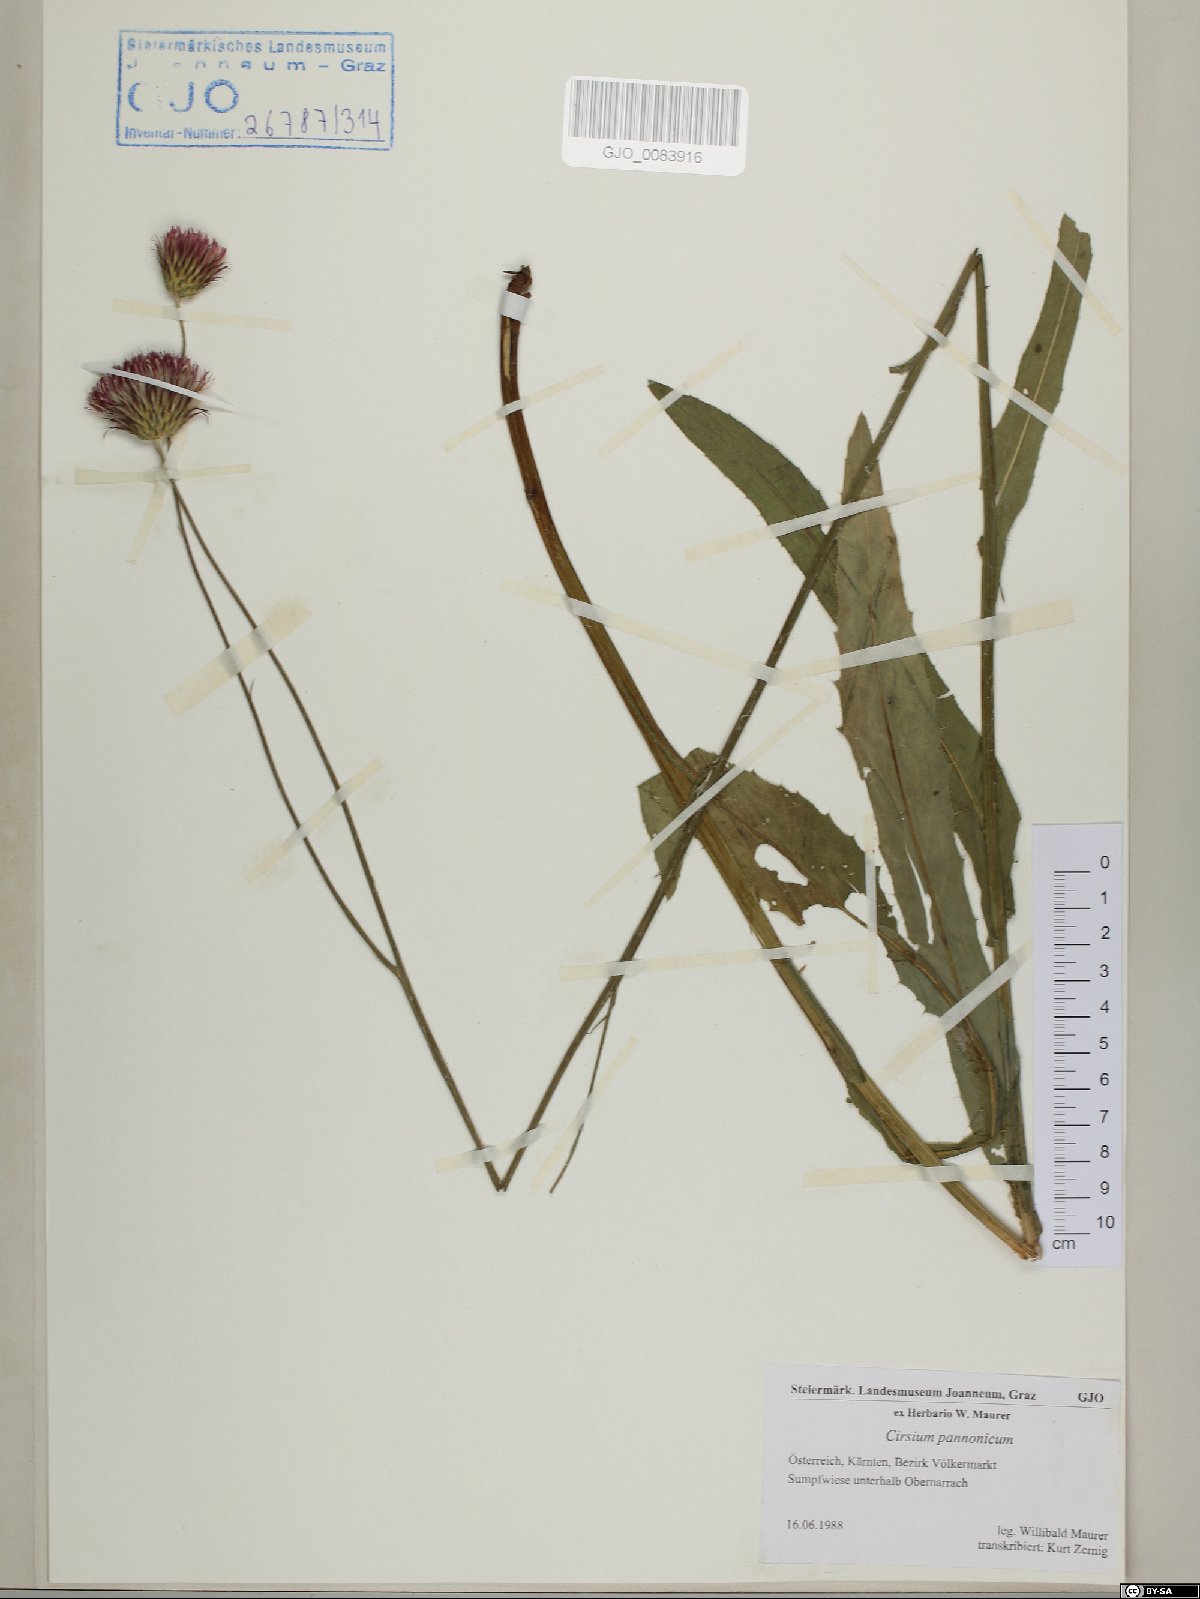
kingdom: Plantae
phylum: Tracheophyta
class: Magnoliopsida
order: Asterales
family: Asteraceae
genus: Cirsium
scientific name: Cirsium pannonicum
